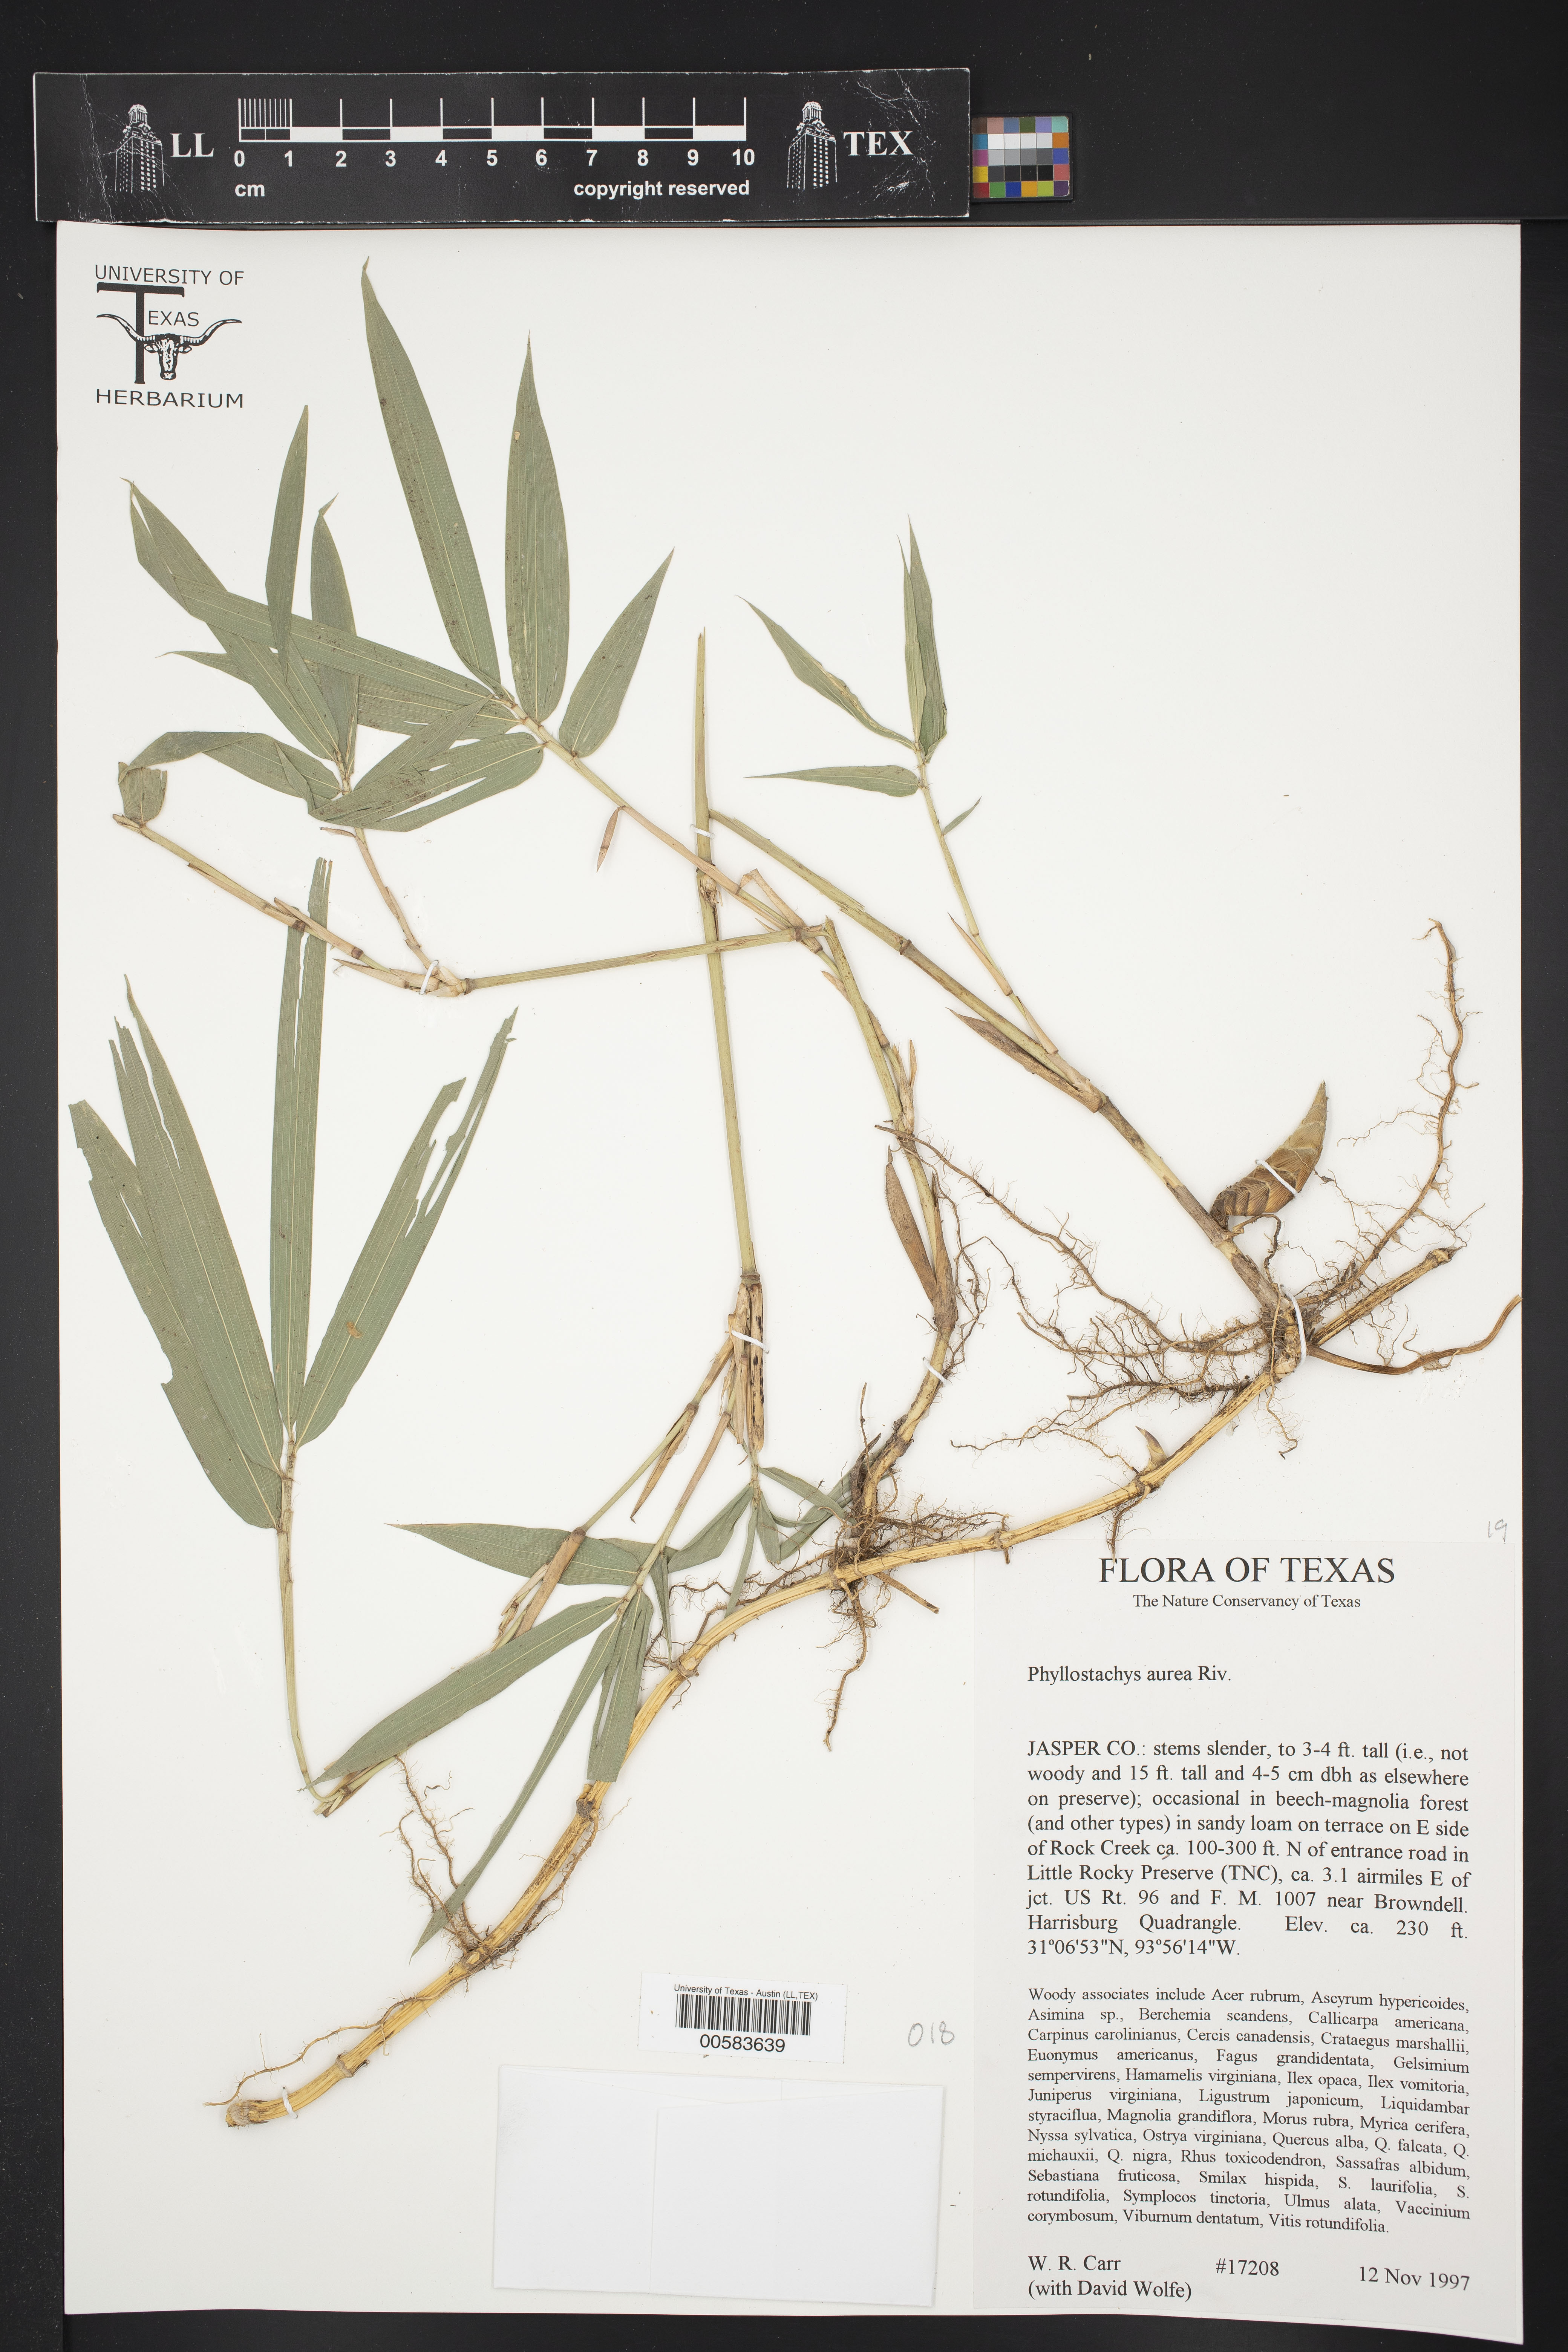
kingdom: Plantae
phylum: Tracheophyta
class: Liliopsida
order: Poales
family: Poaceae
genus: Phyllostachys
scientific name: Phyllostachys aurea
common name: Golden bamboo
